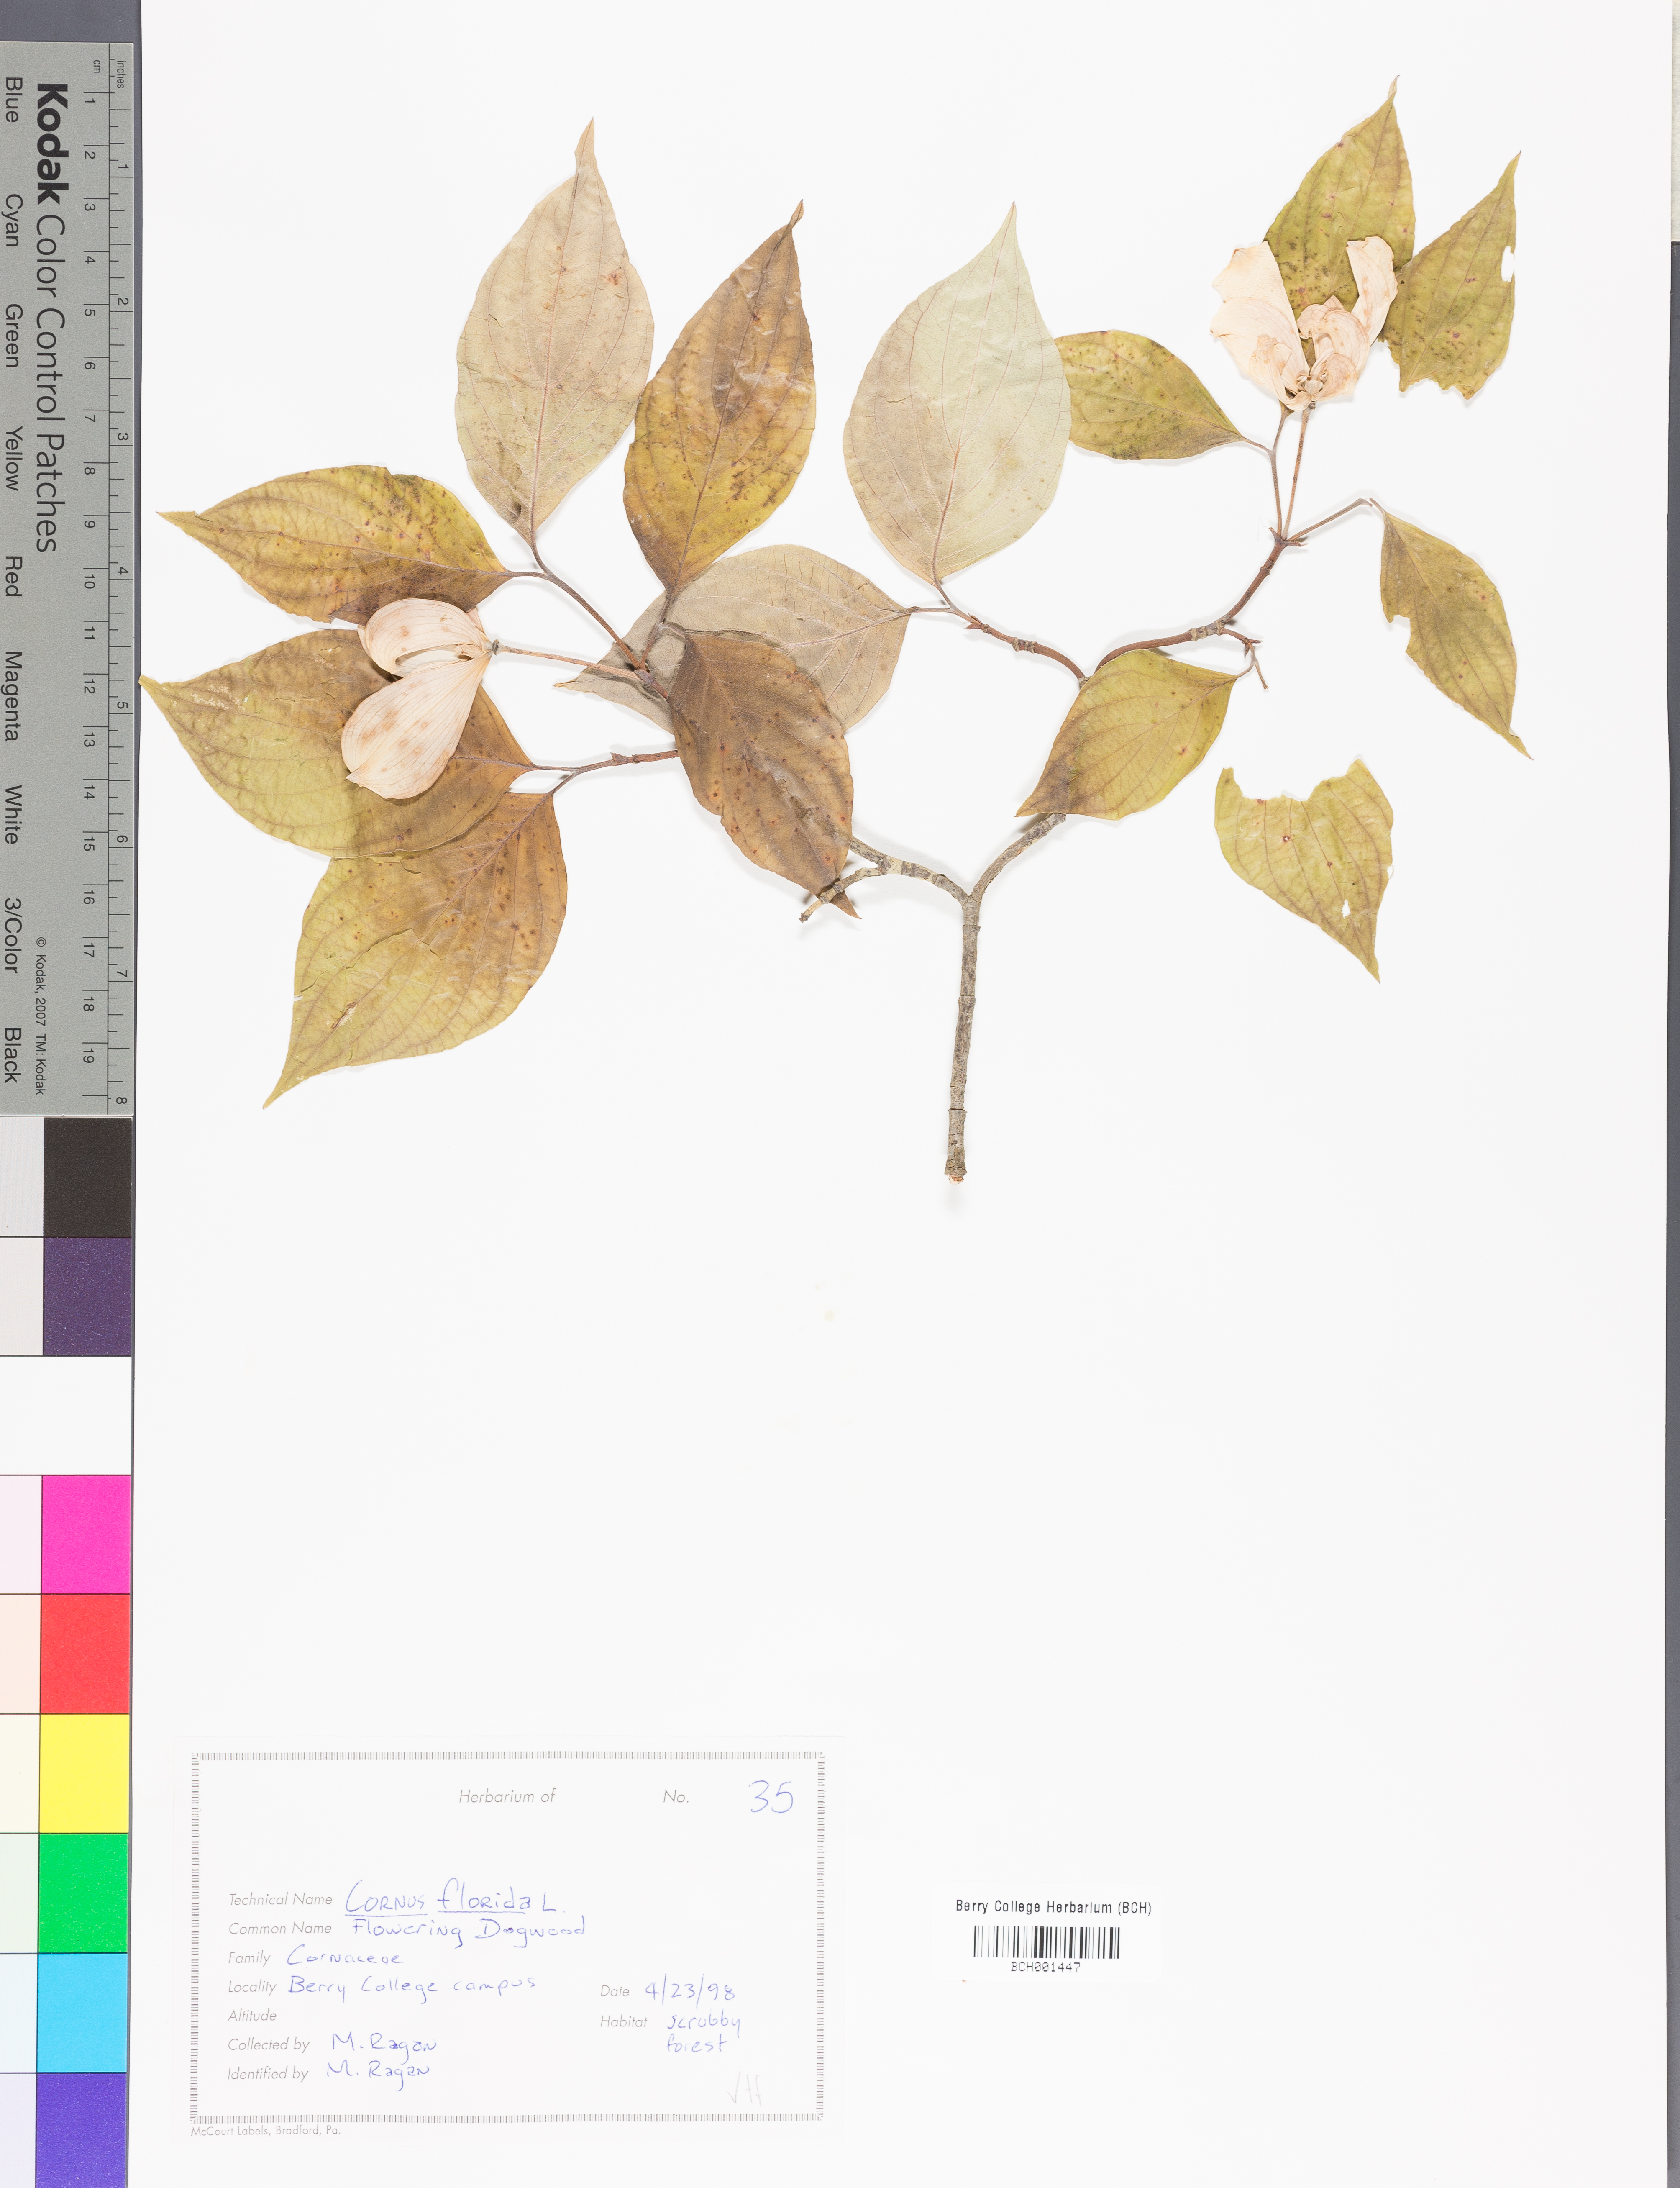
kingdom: Plantae
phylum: Tracheophyta
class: Magnoliopsida
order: Cornales
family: Cornaceae
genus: Cornus
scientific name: Cornus florida
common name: Flowering dogwood
